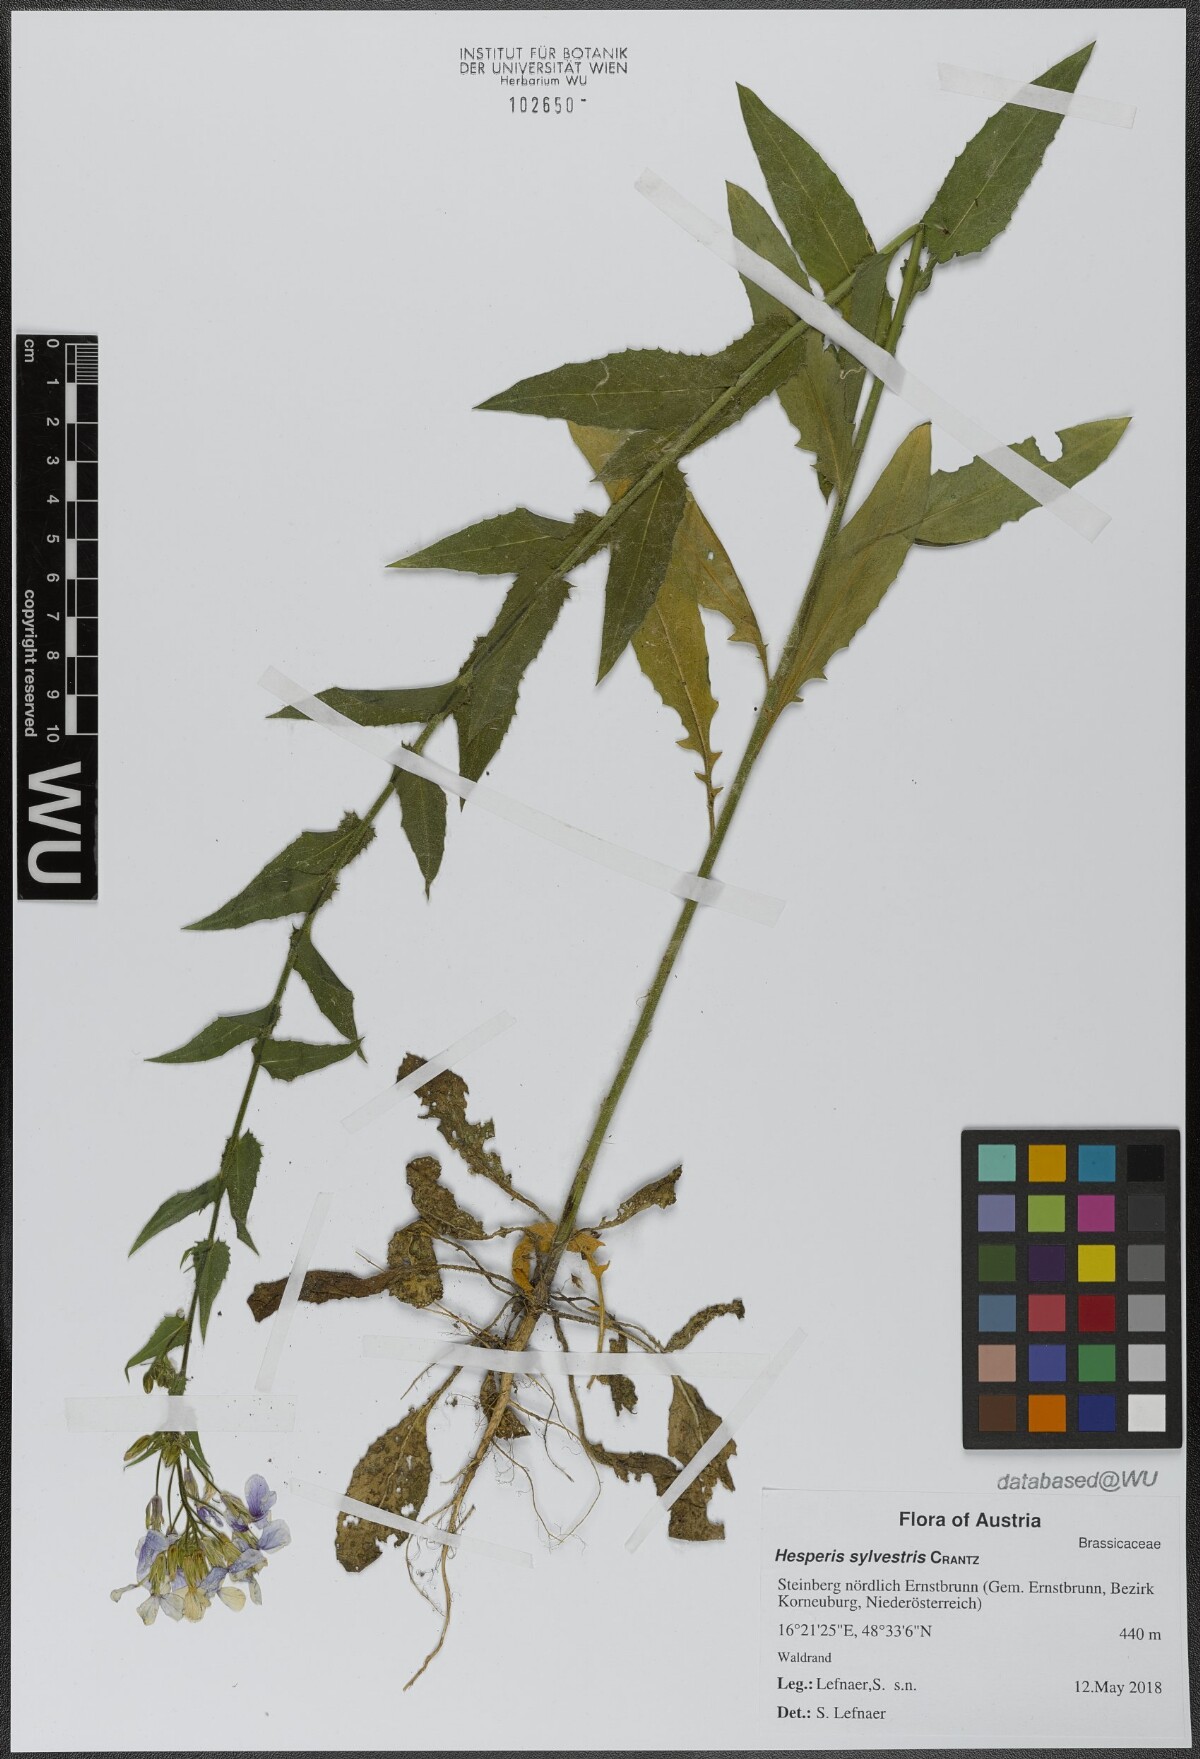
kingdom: Plantae
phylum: Tracheophyta
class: Magnoliopsida
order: Brassicales
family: Brassicaceae
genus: Hesperis
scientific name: Hesperis sylvestris
